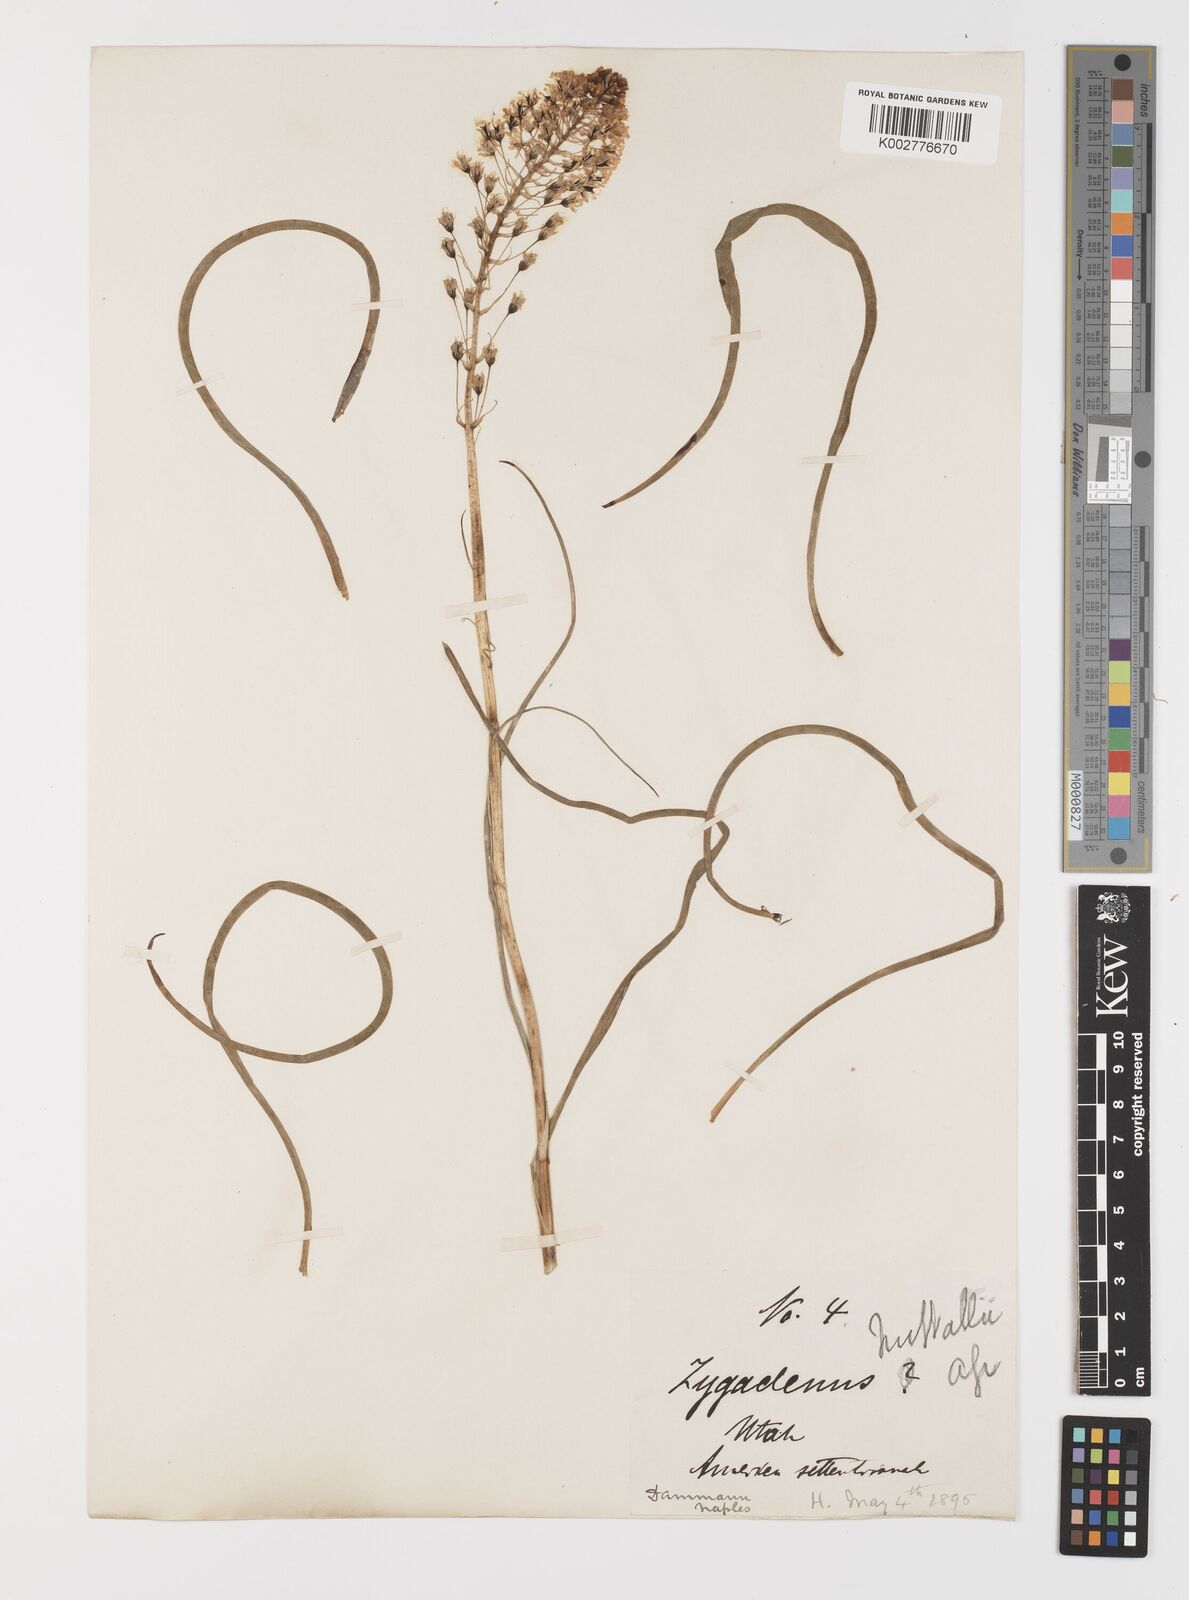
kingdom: Plantae
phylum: Tracheophyta
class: Liliopsida
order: Liliales
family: Melanthiaceae
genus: Toxicoscordion
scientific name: Toxicoscordion nuttallii
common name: Poison sego
